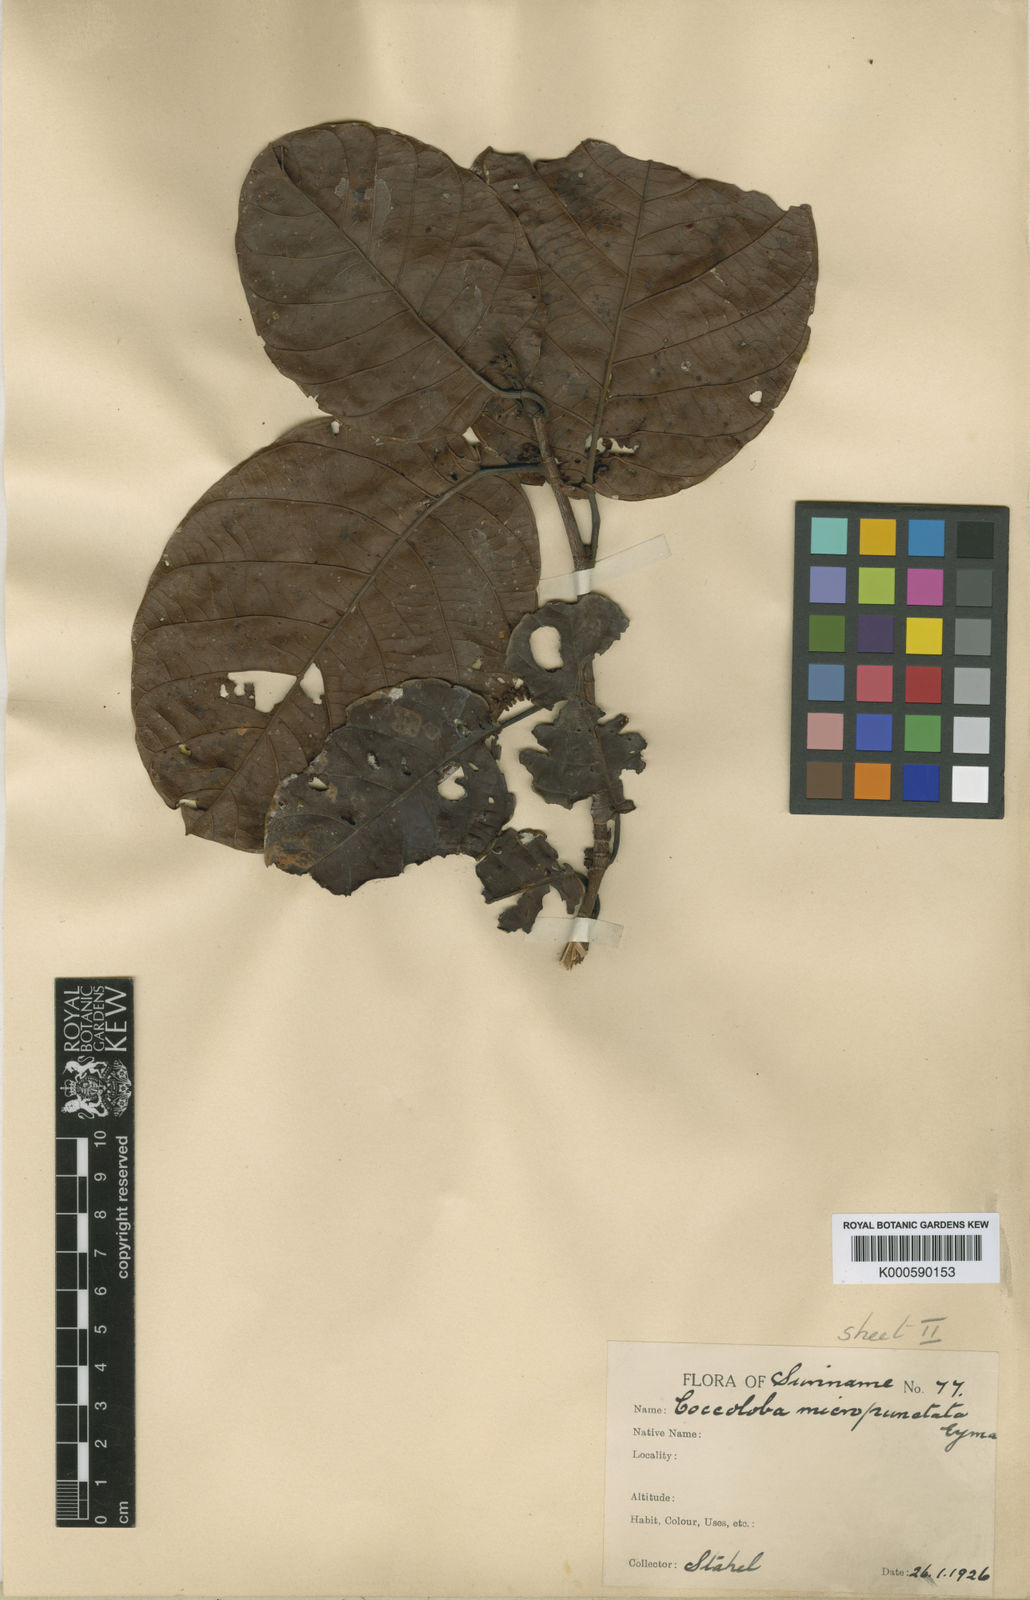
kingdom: Plantae
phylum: Tracheophyta
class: Magnoliopsida
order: Caryophyllales
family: Polygonaceae
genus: Coccoloba
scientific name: Coccoloba excelsa
